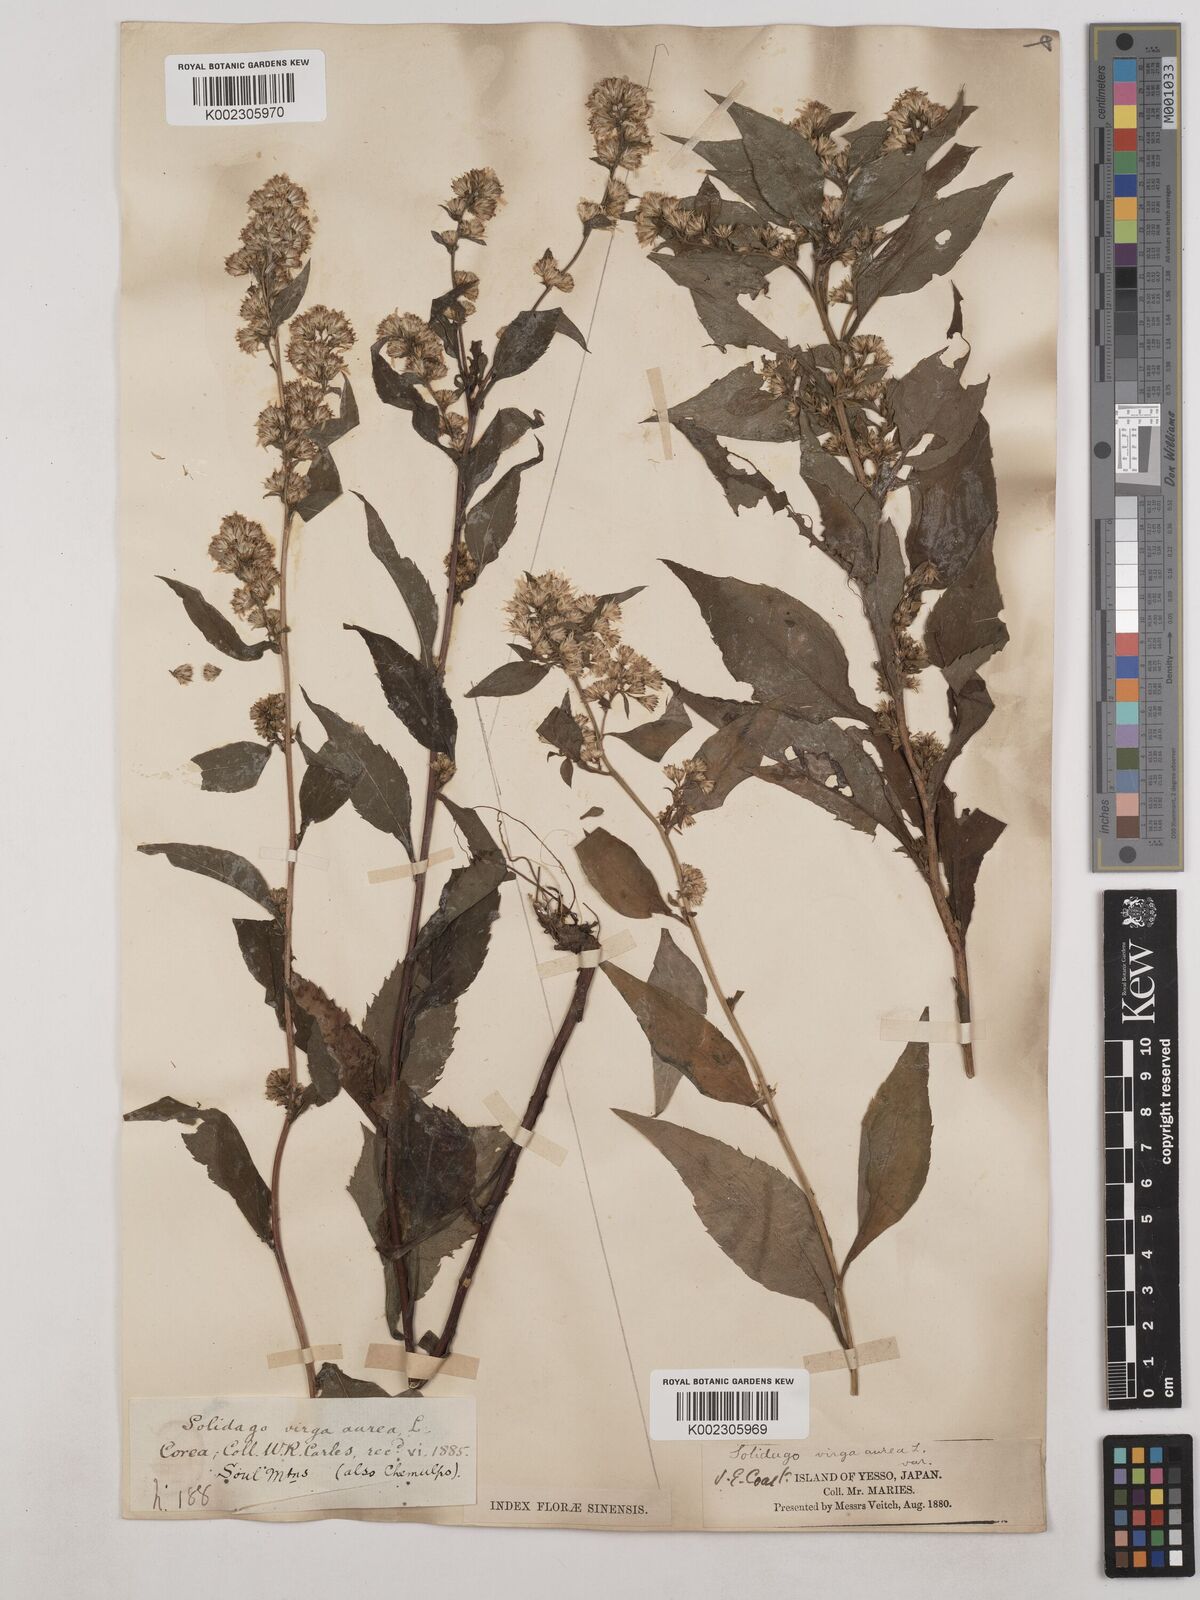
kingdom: Plantae
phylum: Tracheophyta
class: Magnoliopsida
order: Asterales
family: Asteraceae
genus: Solidago
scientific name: Solidago virgaurea
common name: Goldenrod
